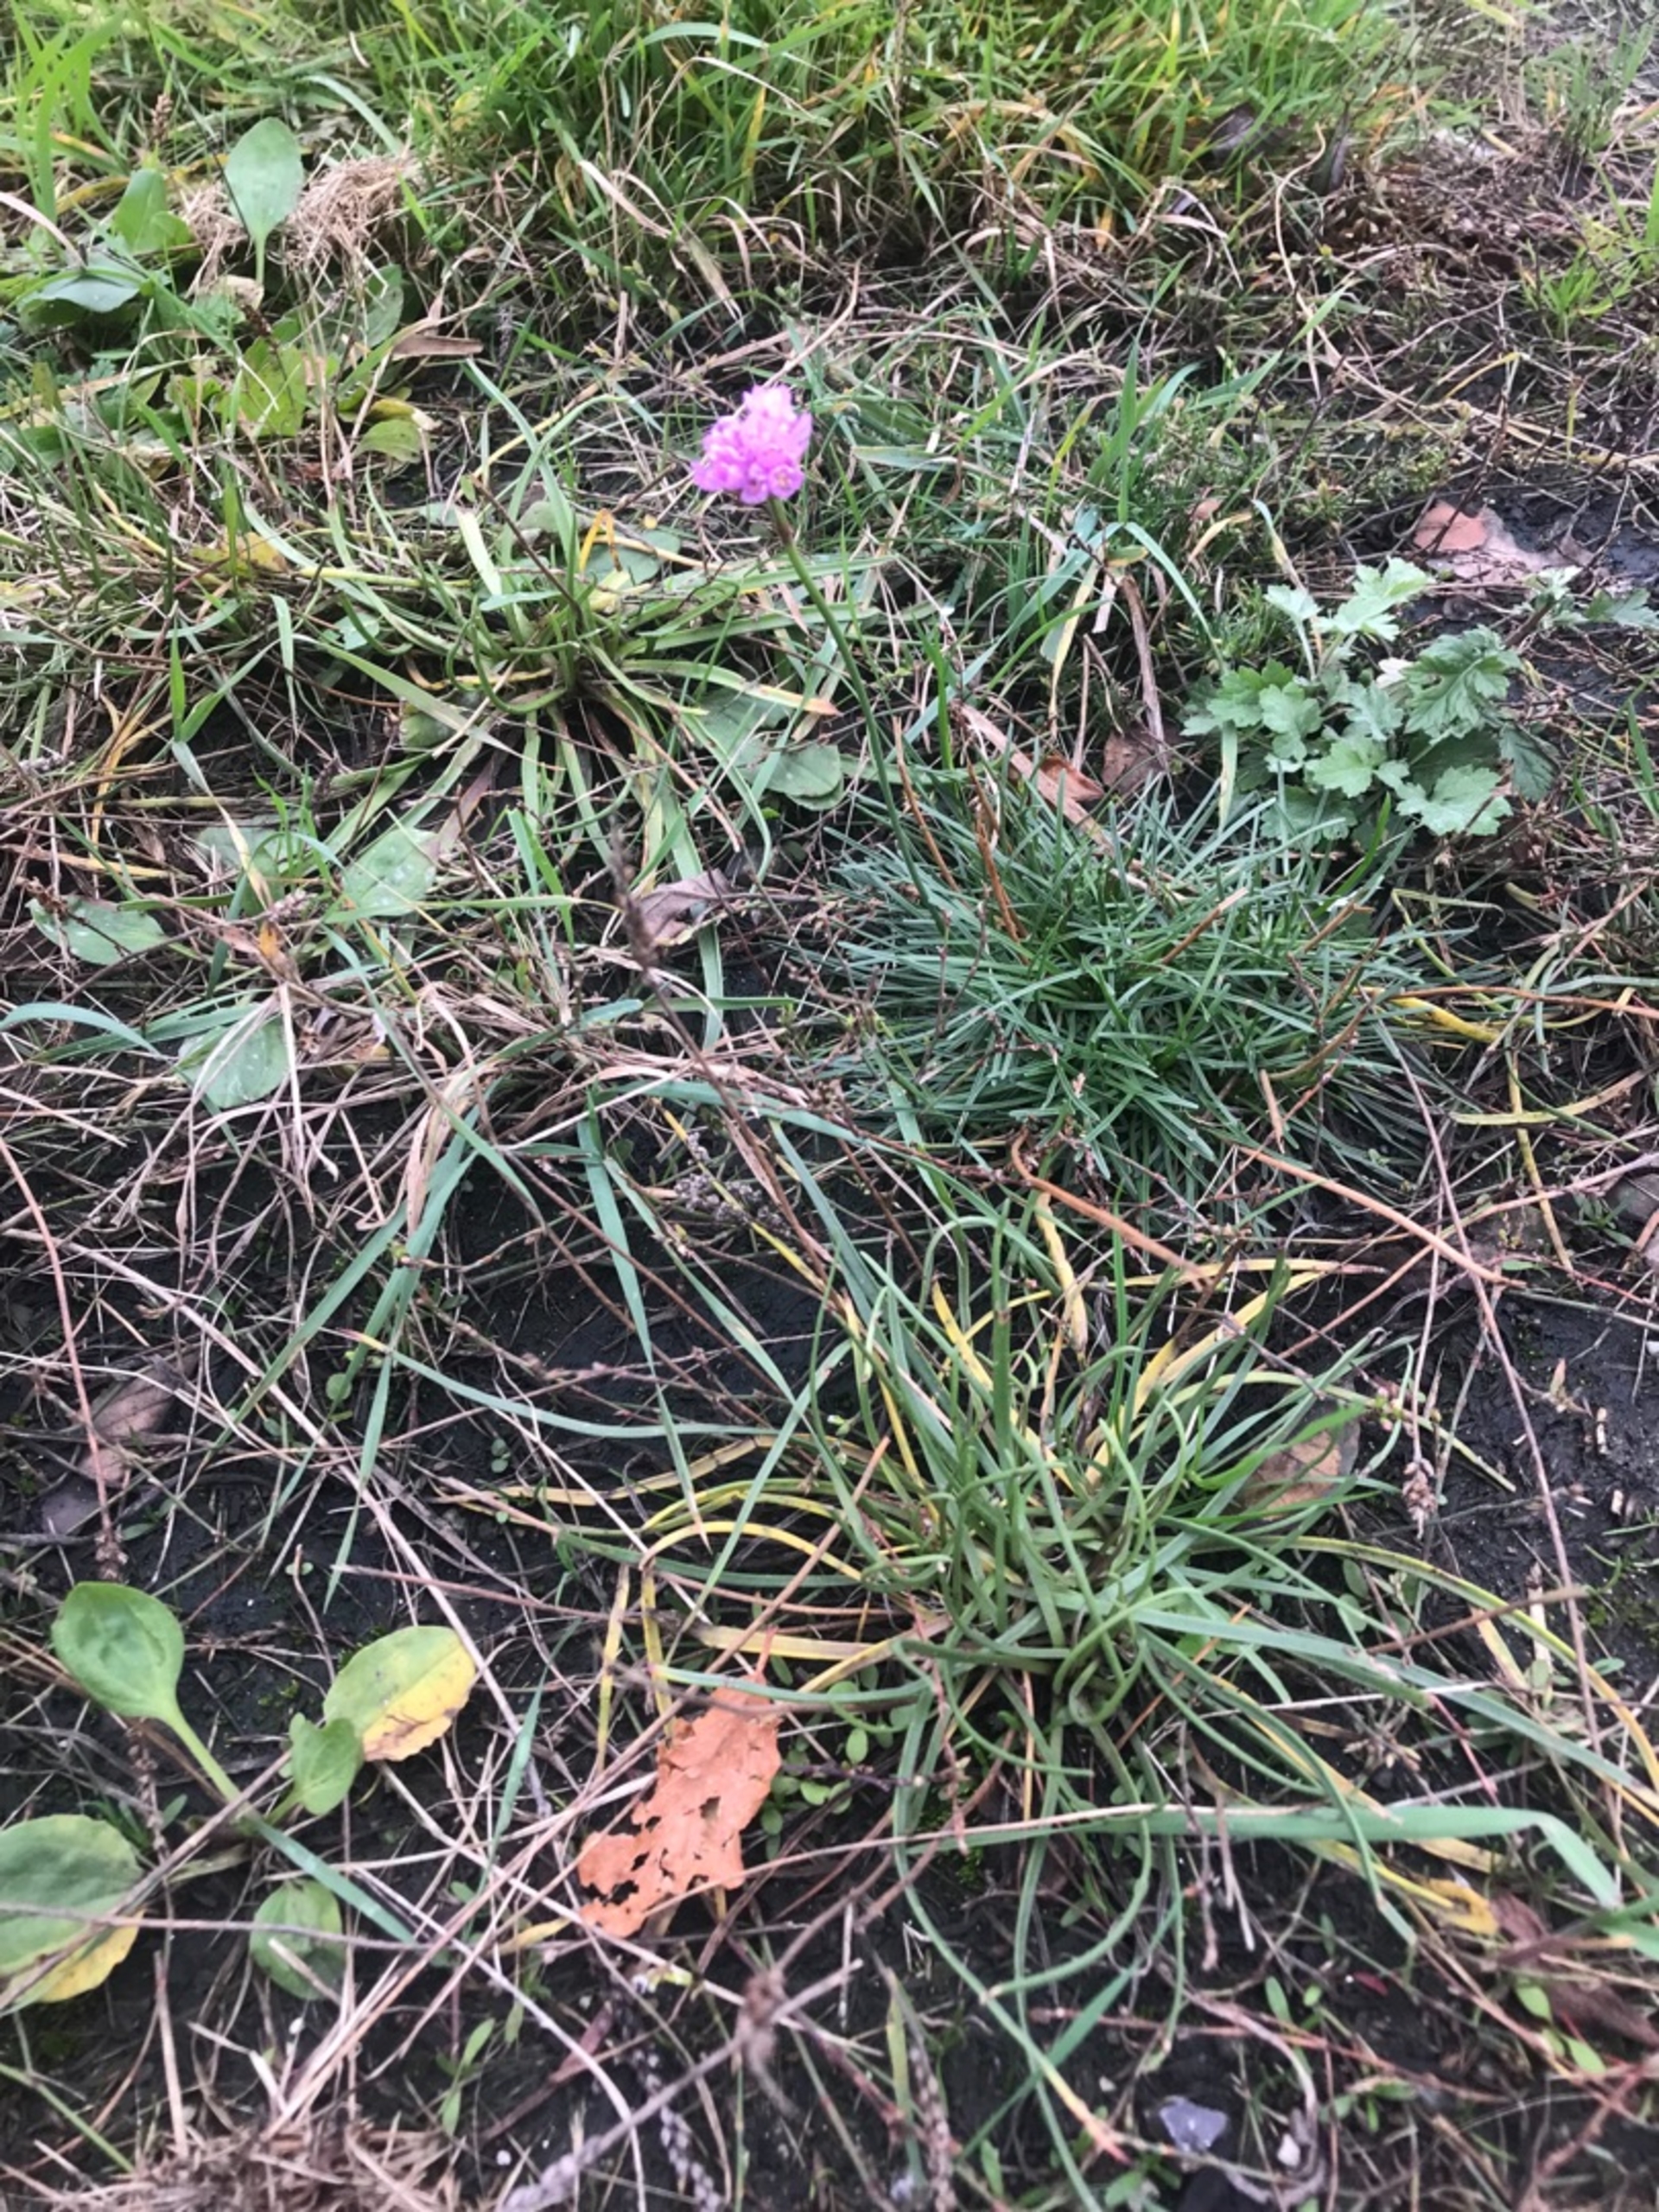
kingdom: Plantae
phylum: Tracheophyta
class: Magnoliopsida
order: Caryophyllales
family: Plumbaginaceae
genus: Armeria
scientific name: Armeria maritima
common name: Engelskgræs
